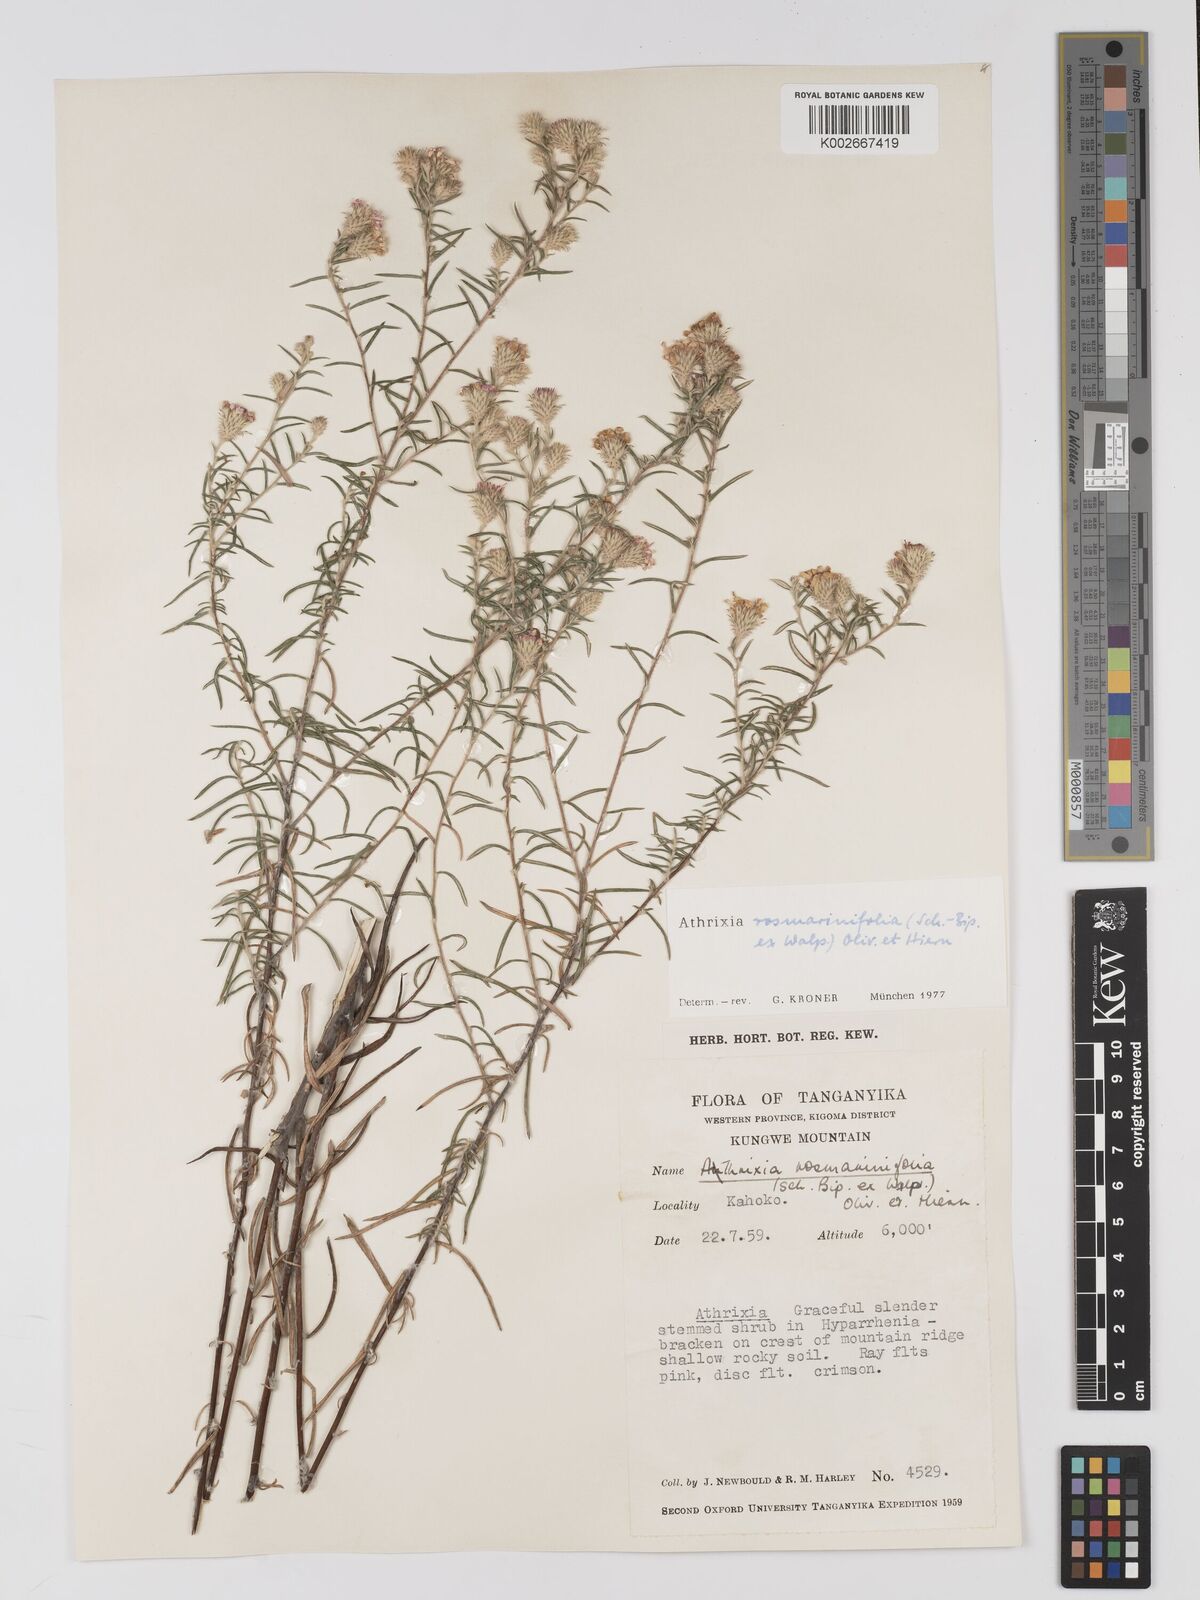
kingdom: Plantae
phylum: Tracheophyta
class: Magnoliopsida
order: Asterales
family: Asteraceae
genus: Athrixia
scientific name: Athrixia rosmarinifolia
